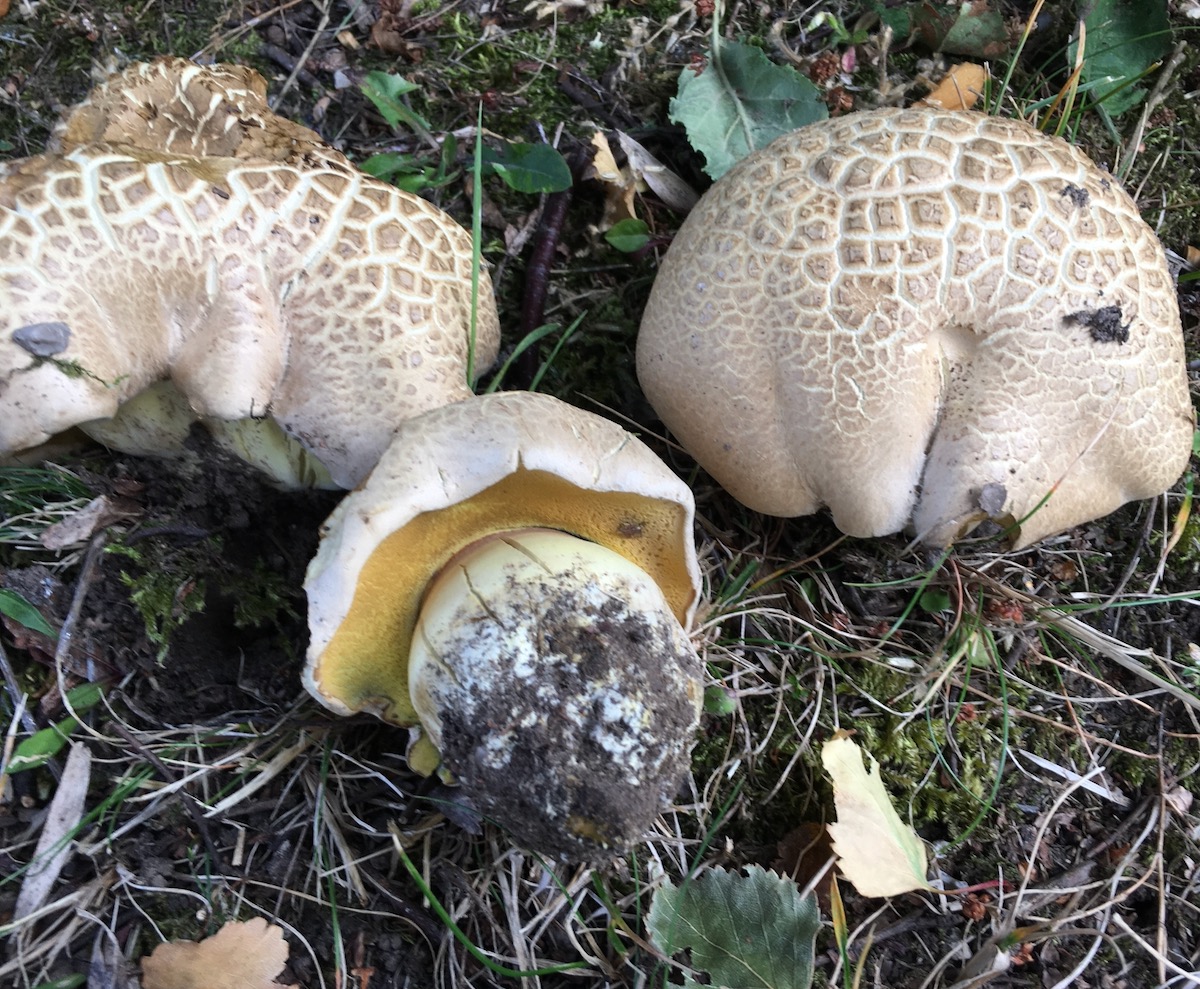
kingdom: Fungi
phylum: Basidiomycota
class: Agaricomycetes
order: Boletales
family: Boletaceae
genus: Caloboletus
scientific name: Caloboletus radicans
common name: rod-rørhat
